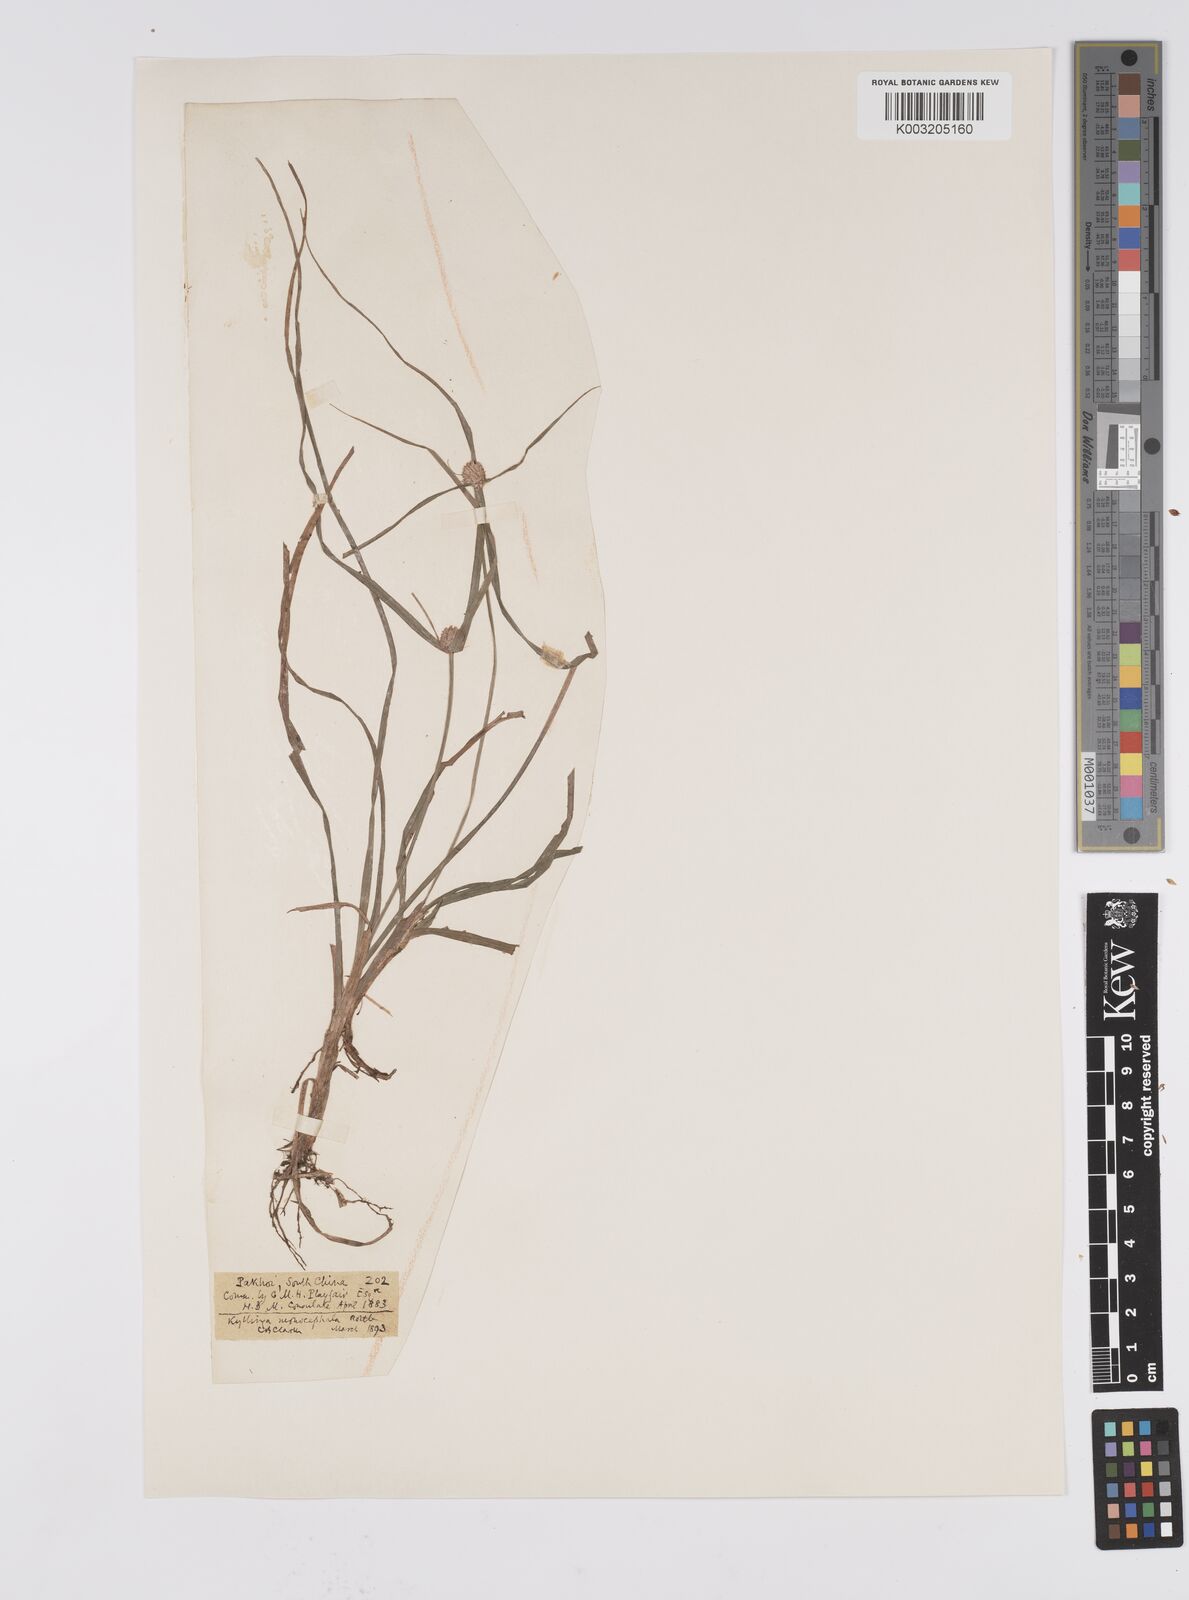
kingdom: Plantae
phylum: Tracheophyta
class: Liliopsida
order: Poales
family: Cyperaceae
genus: Cyperus
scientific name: Cyperus nemoralis
